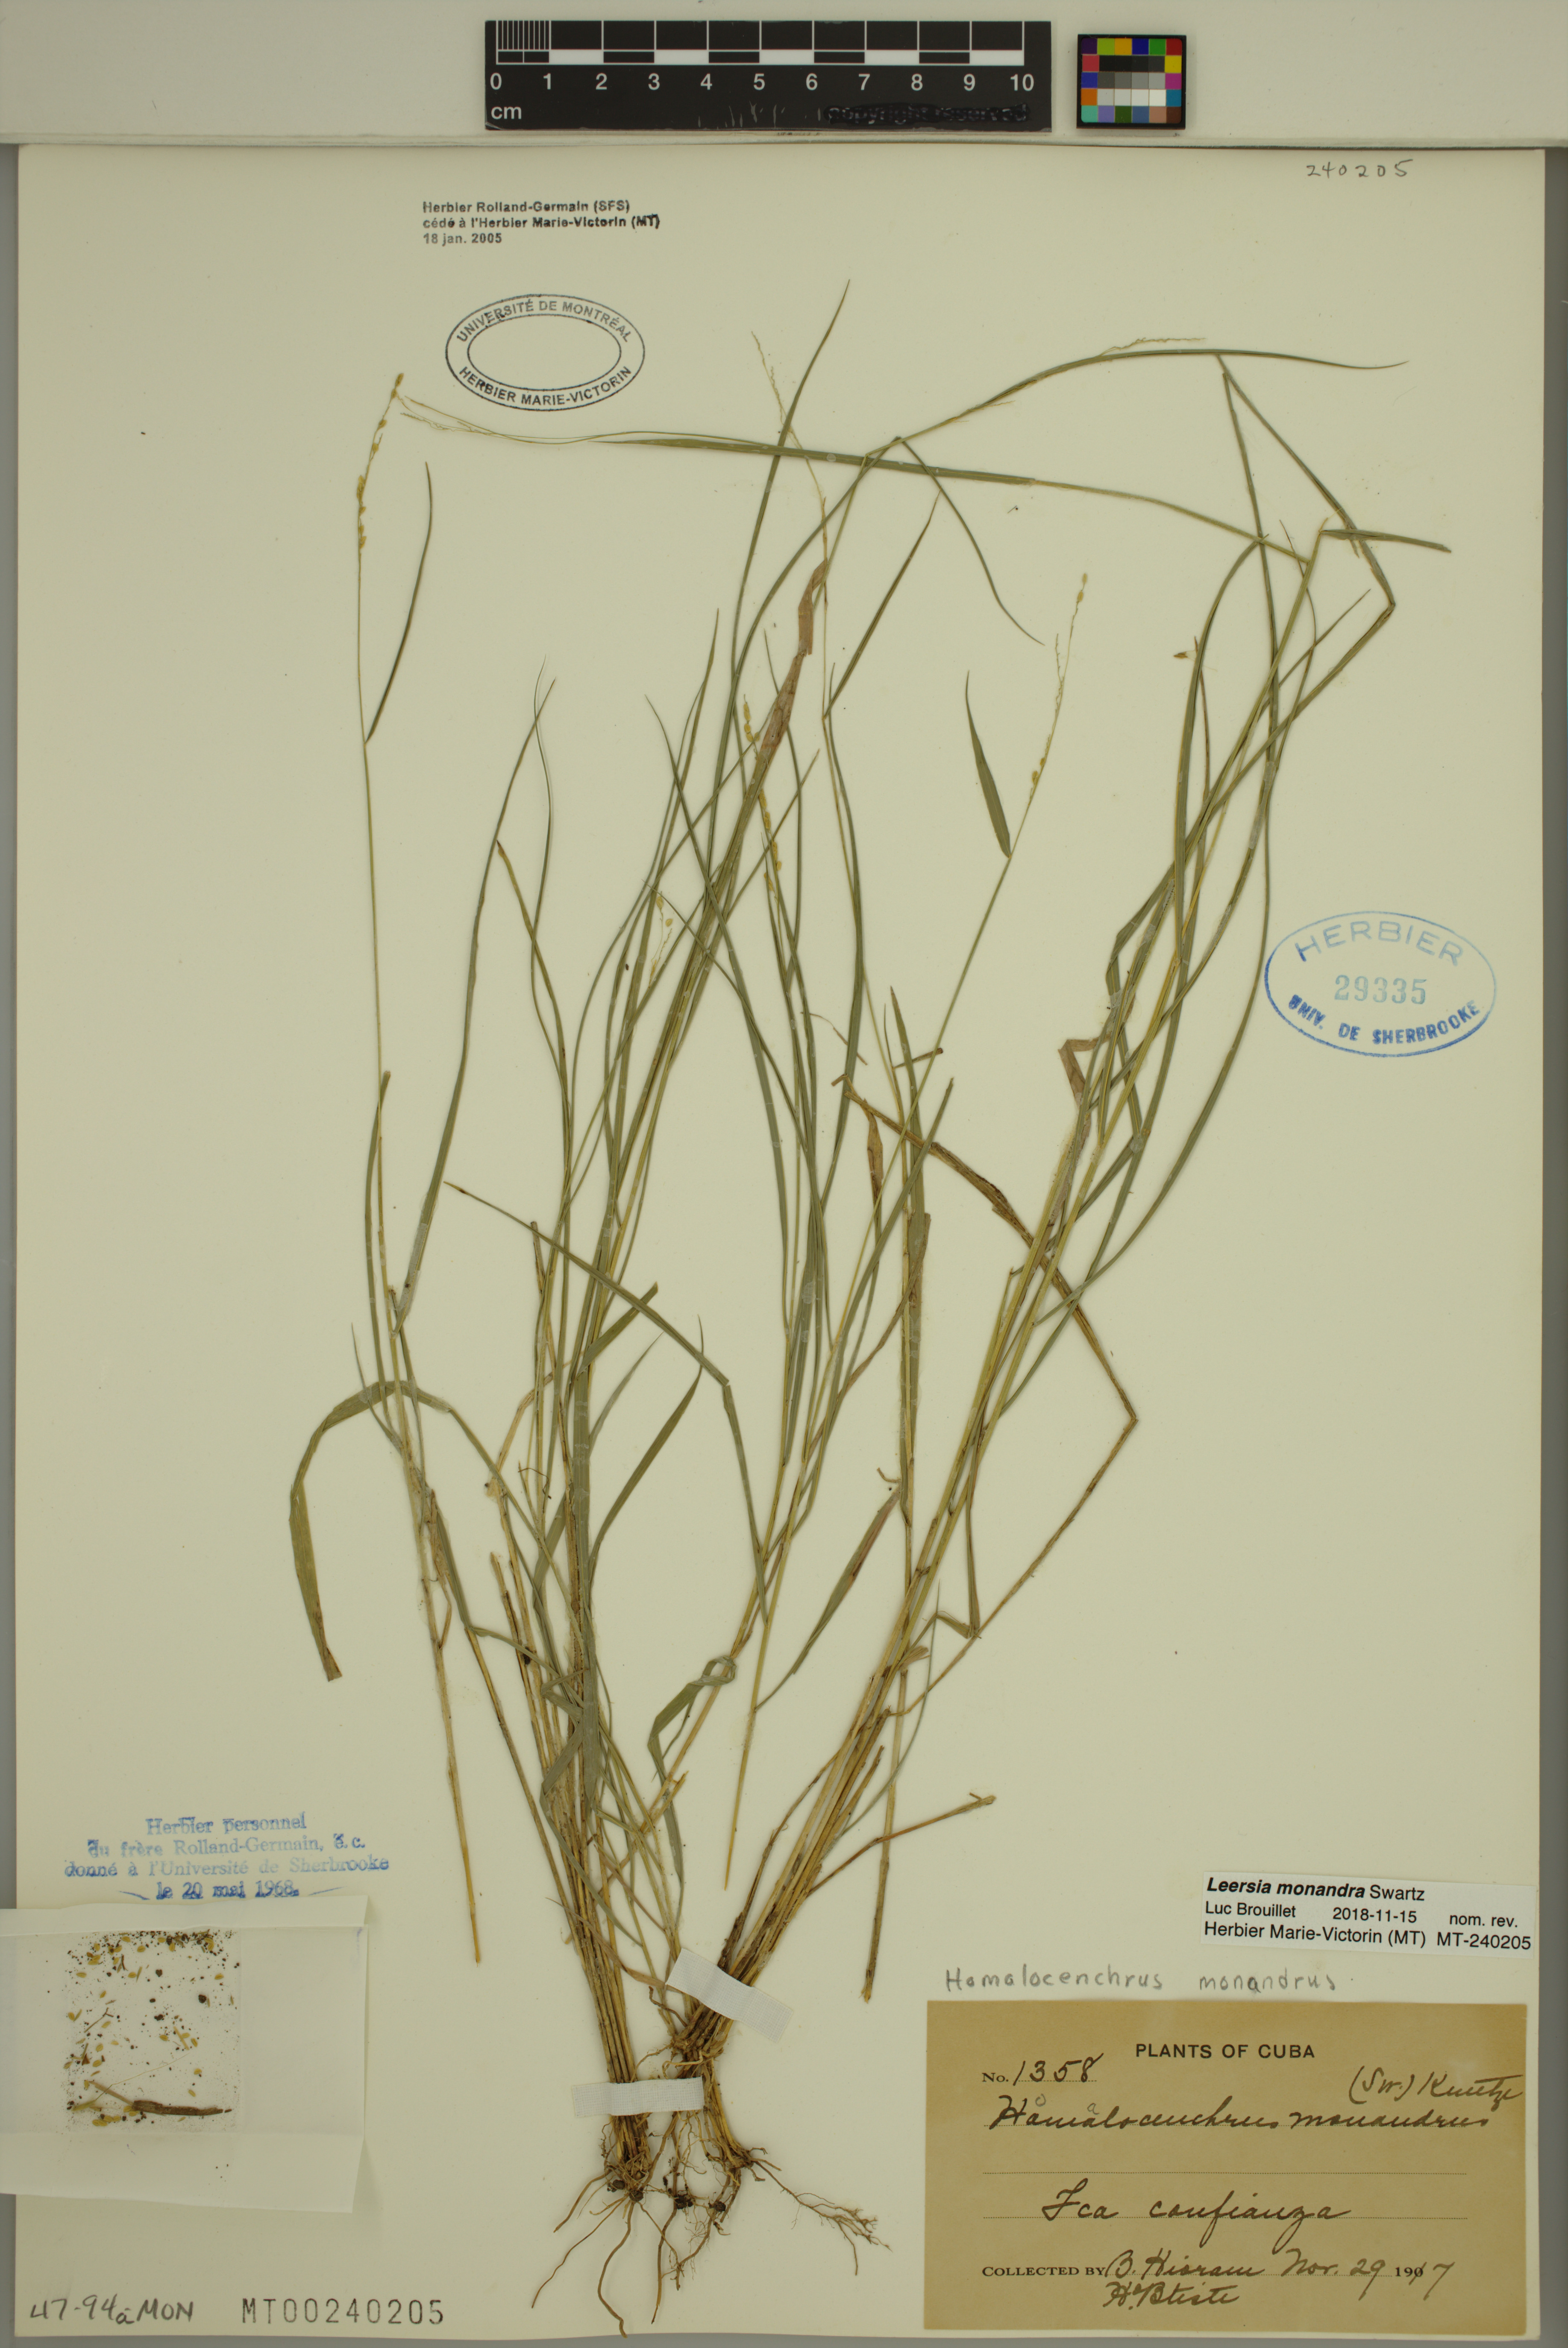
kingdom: Plantae
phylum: Tracheophyta
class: Liliopsida
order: Poales
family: Poaceae
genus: Leersia
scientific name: Leersia monandra
